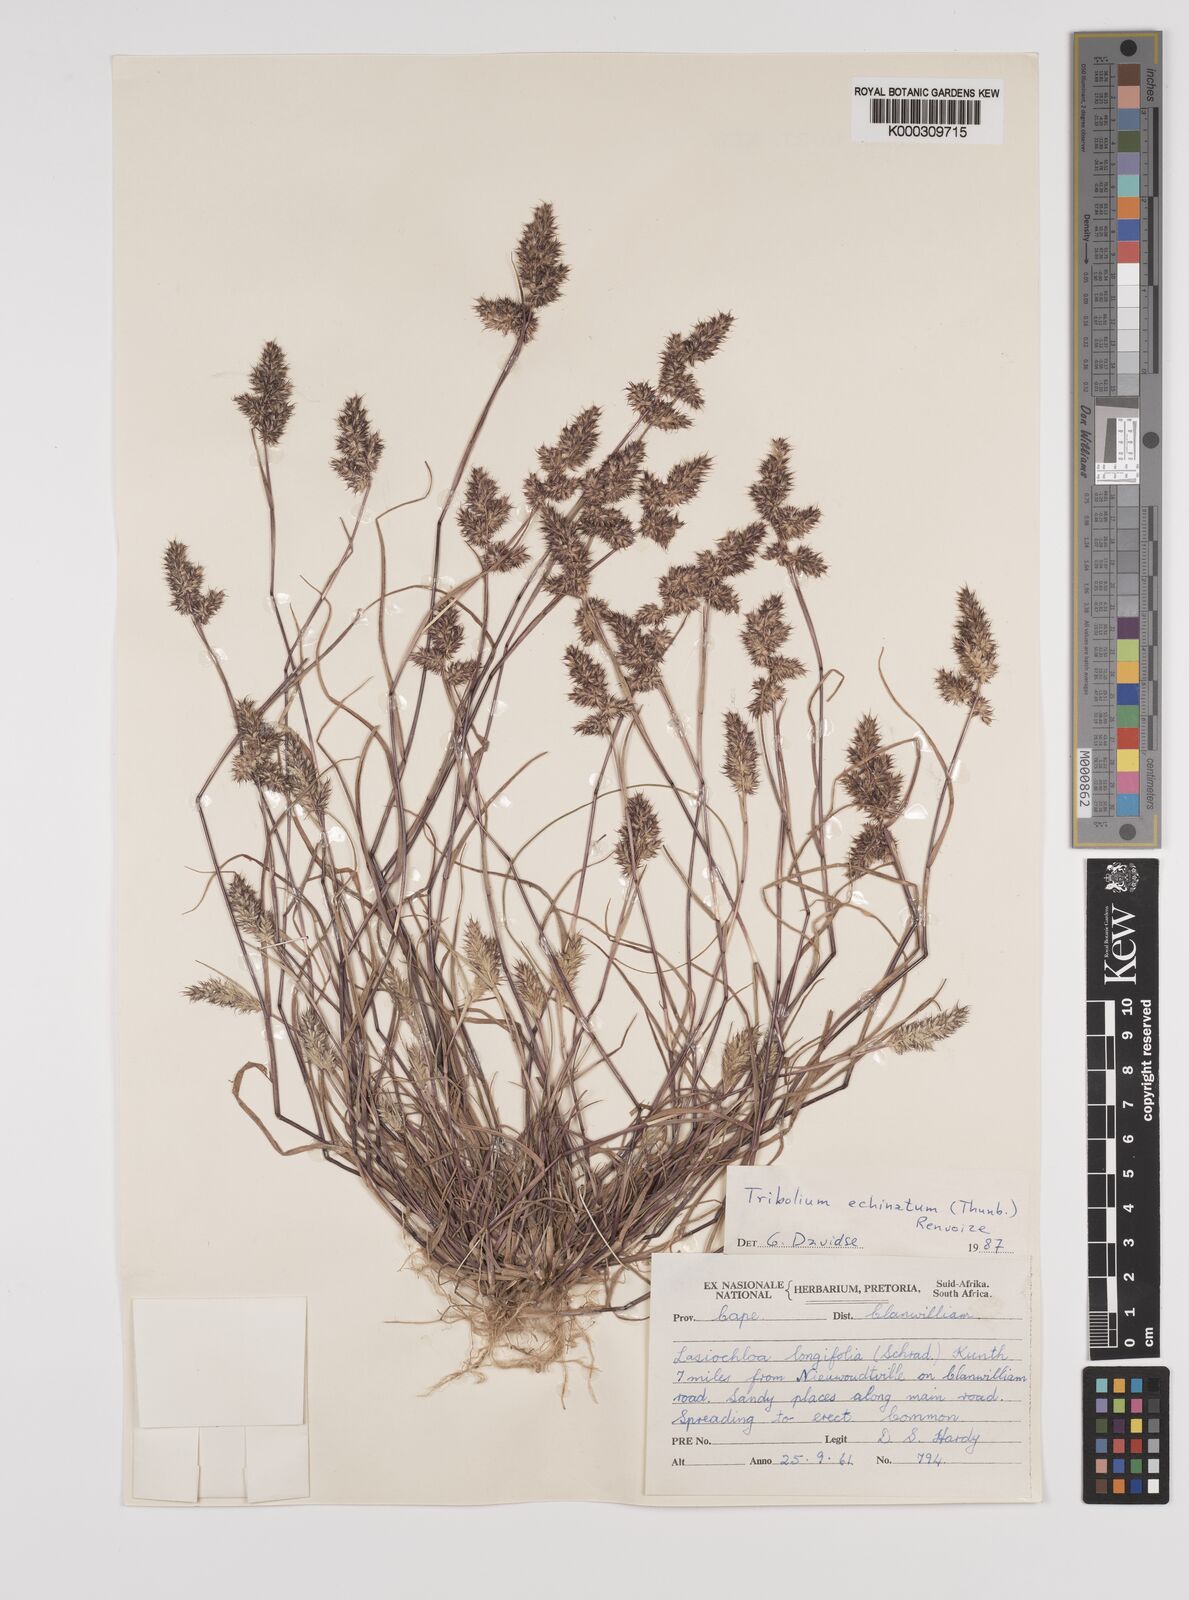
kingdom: Plantae
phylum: Tracheophyta
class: Liliopsida
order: Poales
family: Poaceae
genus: Tribolium
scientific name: Tribolium echinatum
